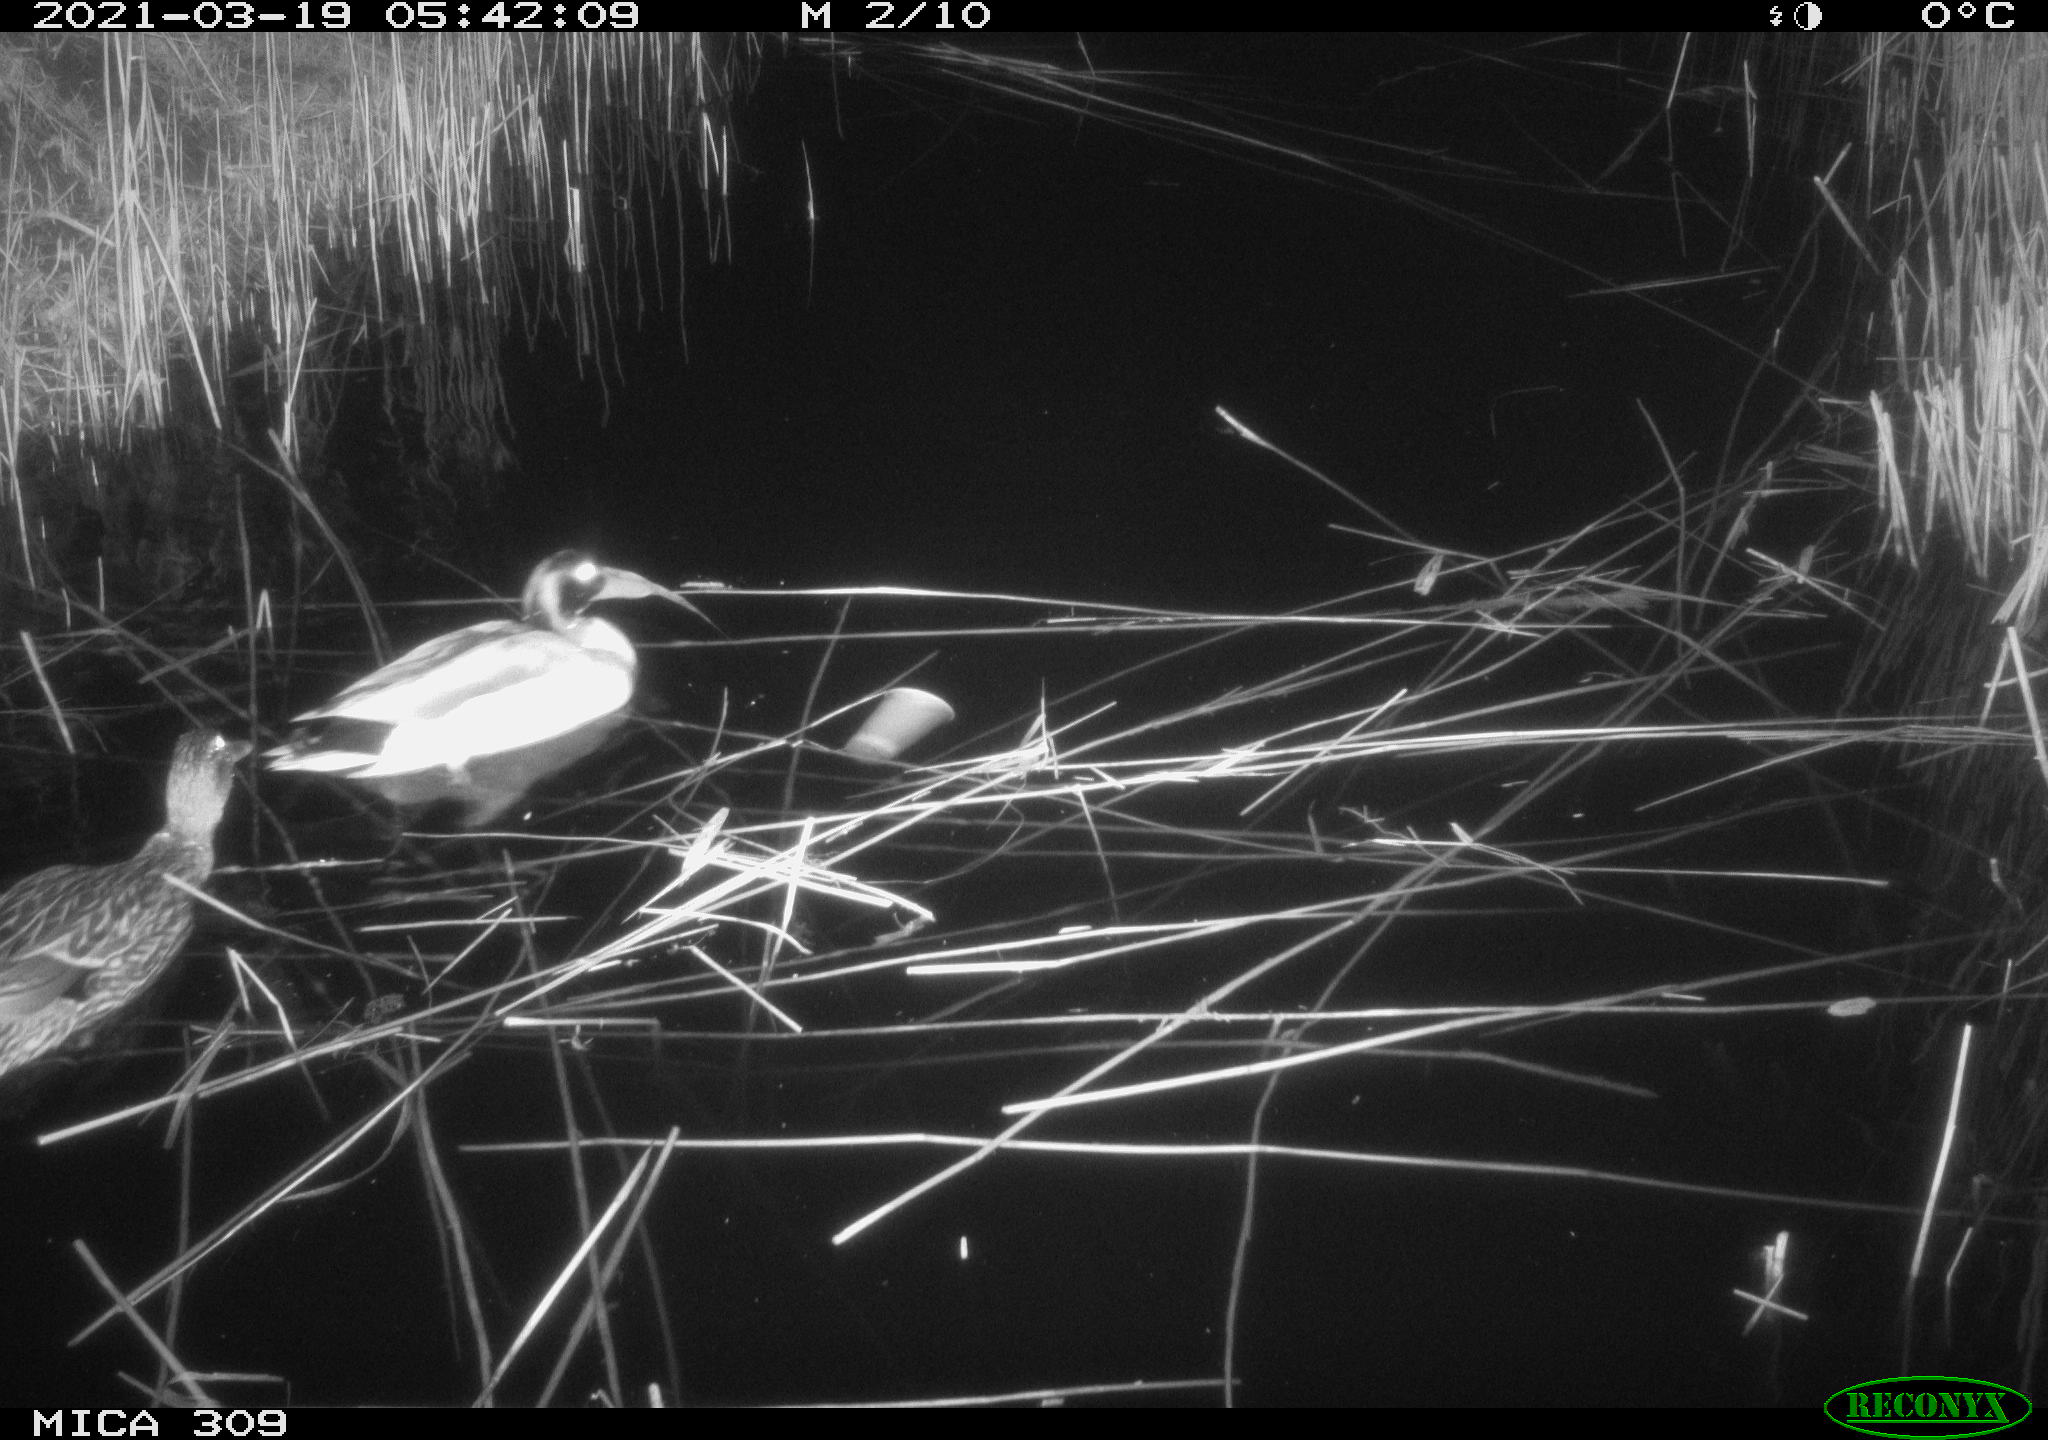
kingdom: Animalia
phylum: Chordata
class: Aves
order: Anseriformes
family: Anatidae
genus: Anas
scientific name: Anas platyrhynchos
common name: Mallard
